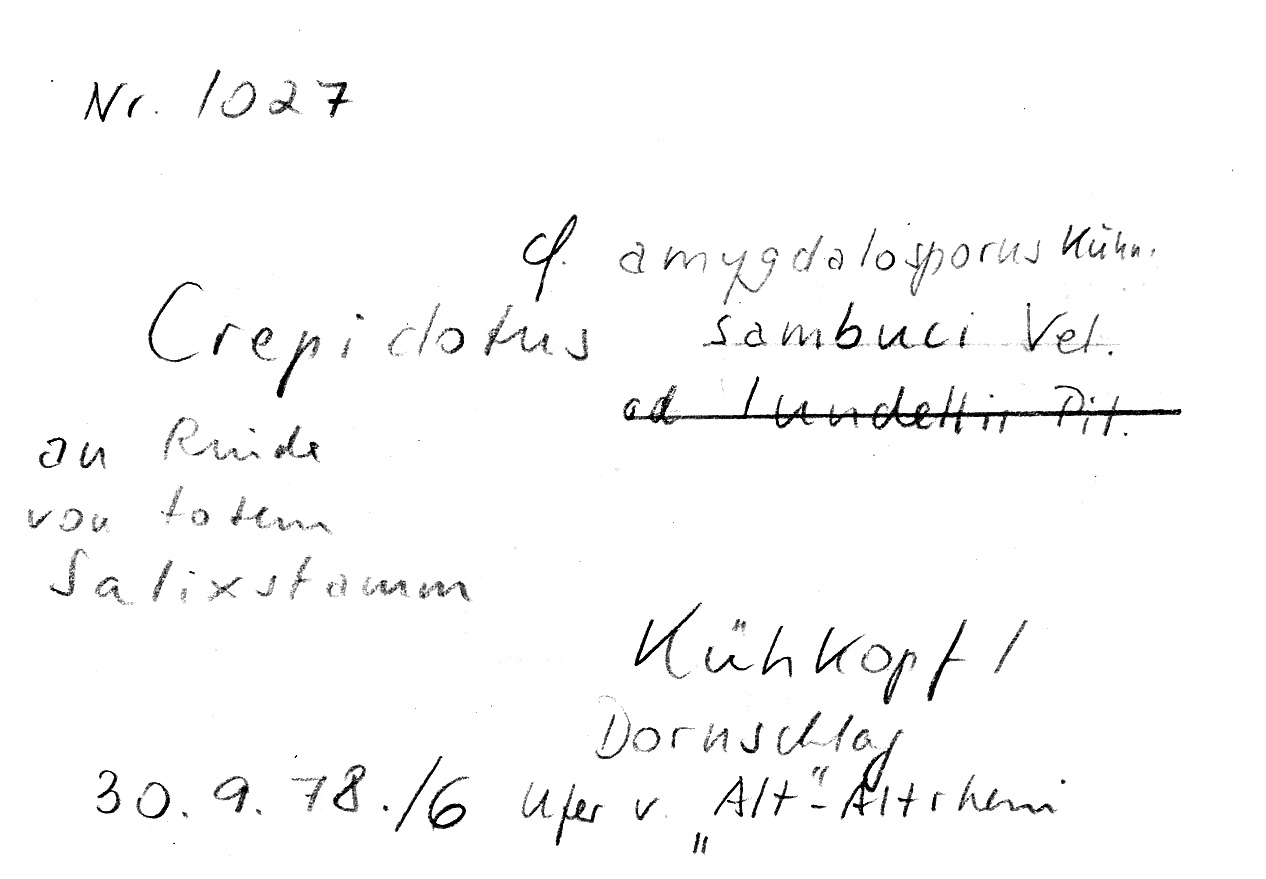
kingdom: Plantae
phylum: Tracheophyta
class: Magnoliopsida
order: Malpighiales
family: Salicaceae
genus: Salix
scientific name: Salix
